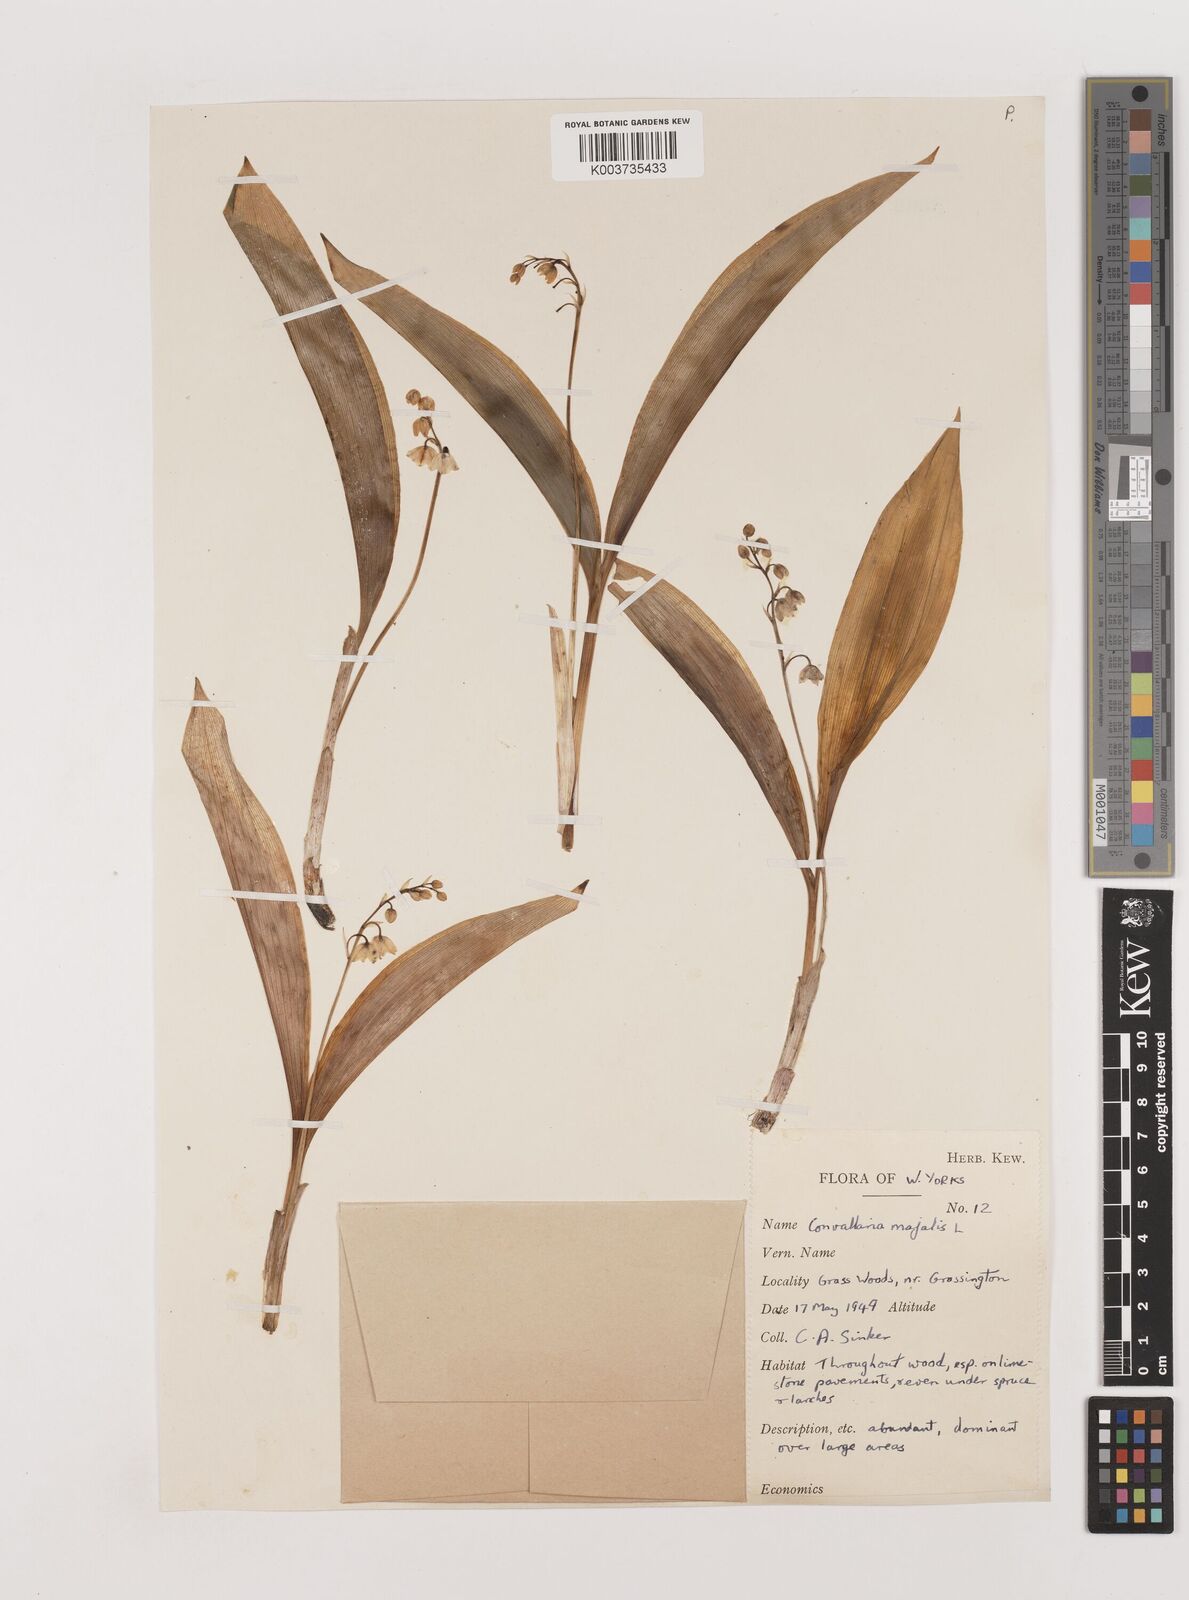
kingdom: Plantae
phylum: Tracheophyta
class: Liliopsida
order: Asparagales
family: Asparagaceae
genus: Convallaria
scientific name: Convallaria majalis
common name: Lily-of-the-valley
